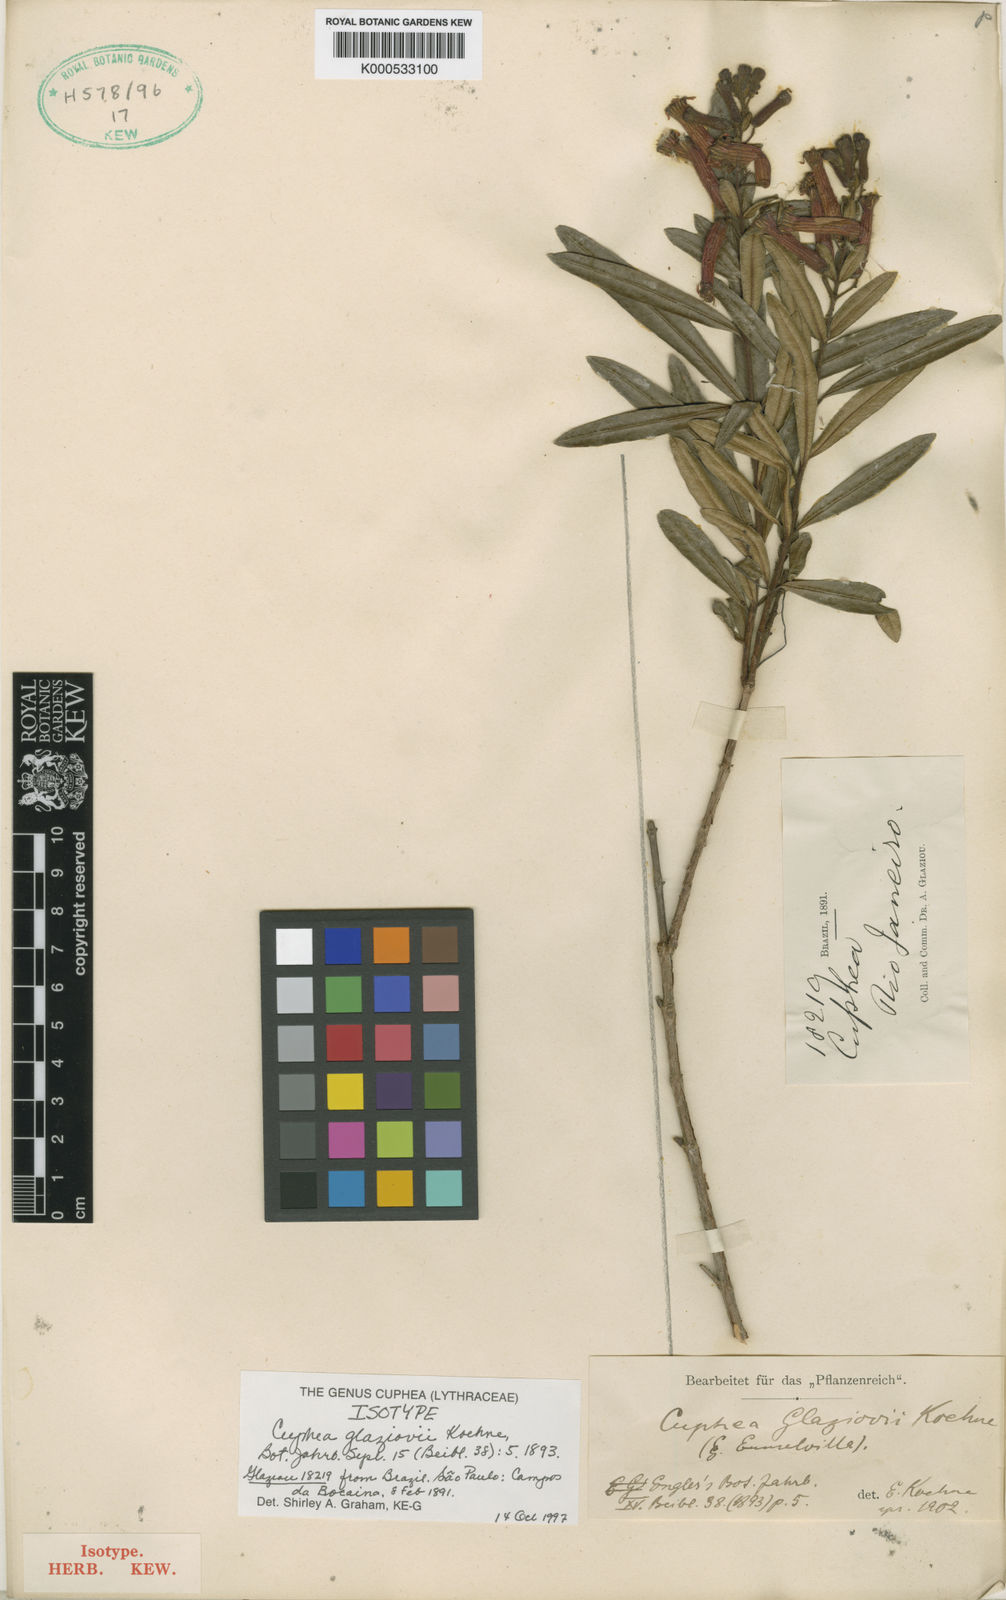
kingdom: Plantae
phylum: Tracheophyta
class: Magnoliopsida
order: Myrtales
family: Lythraceae
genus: Cuphea
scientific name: Cuphea glaziovii
